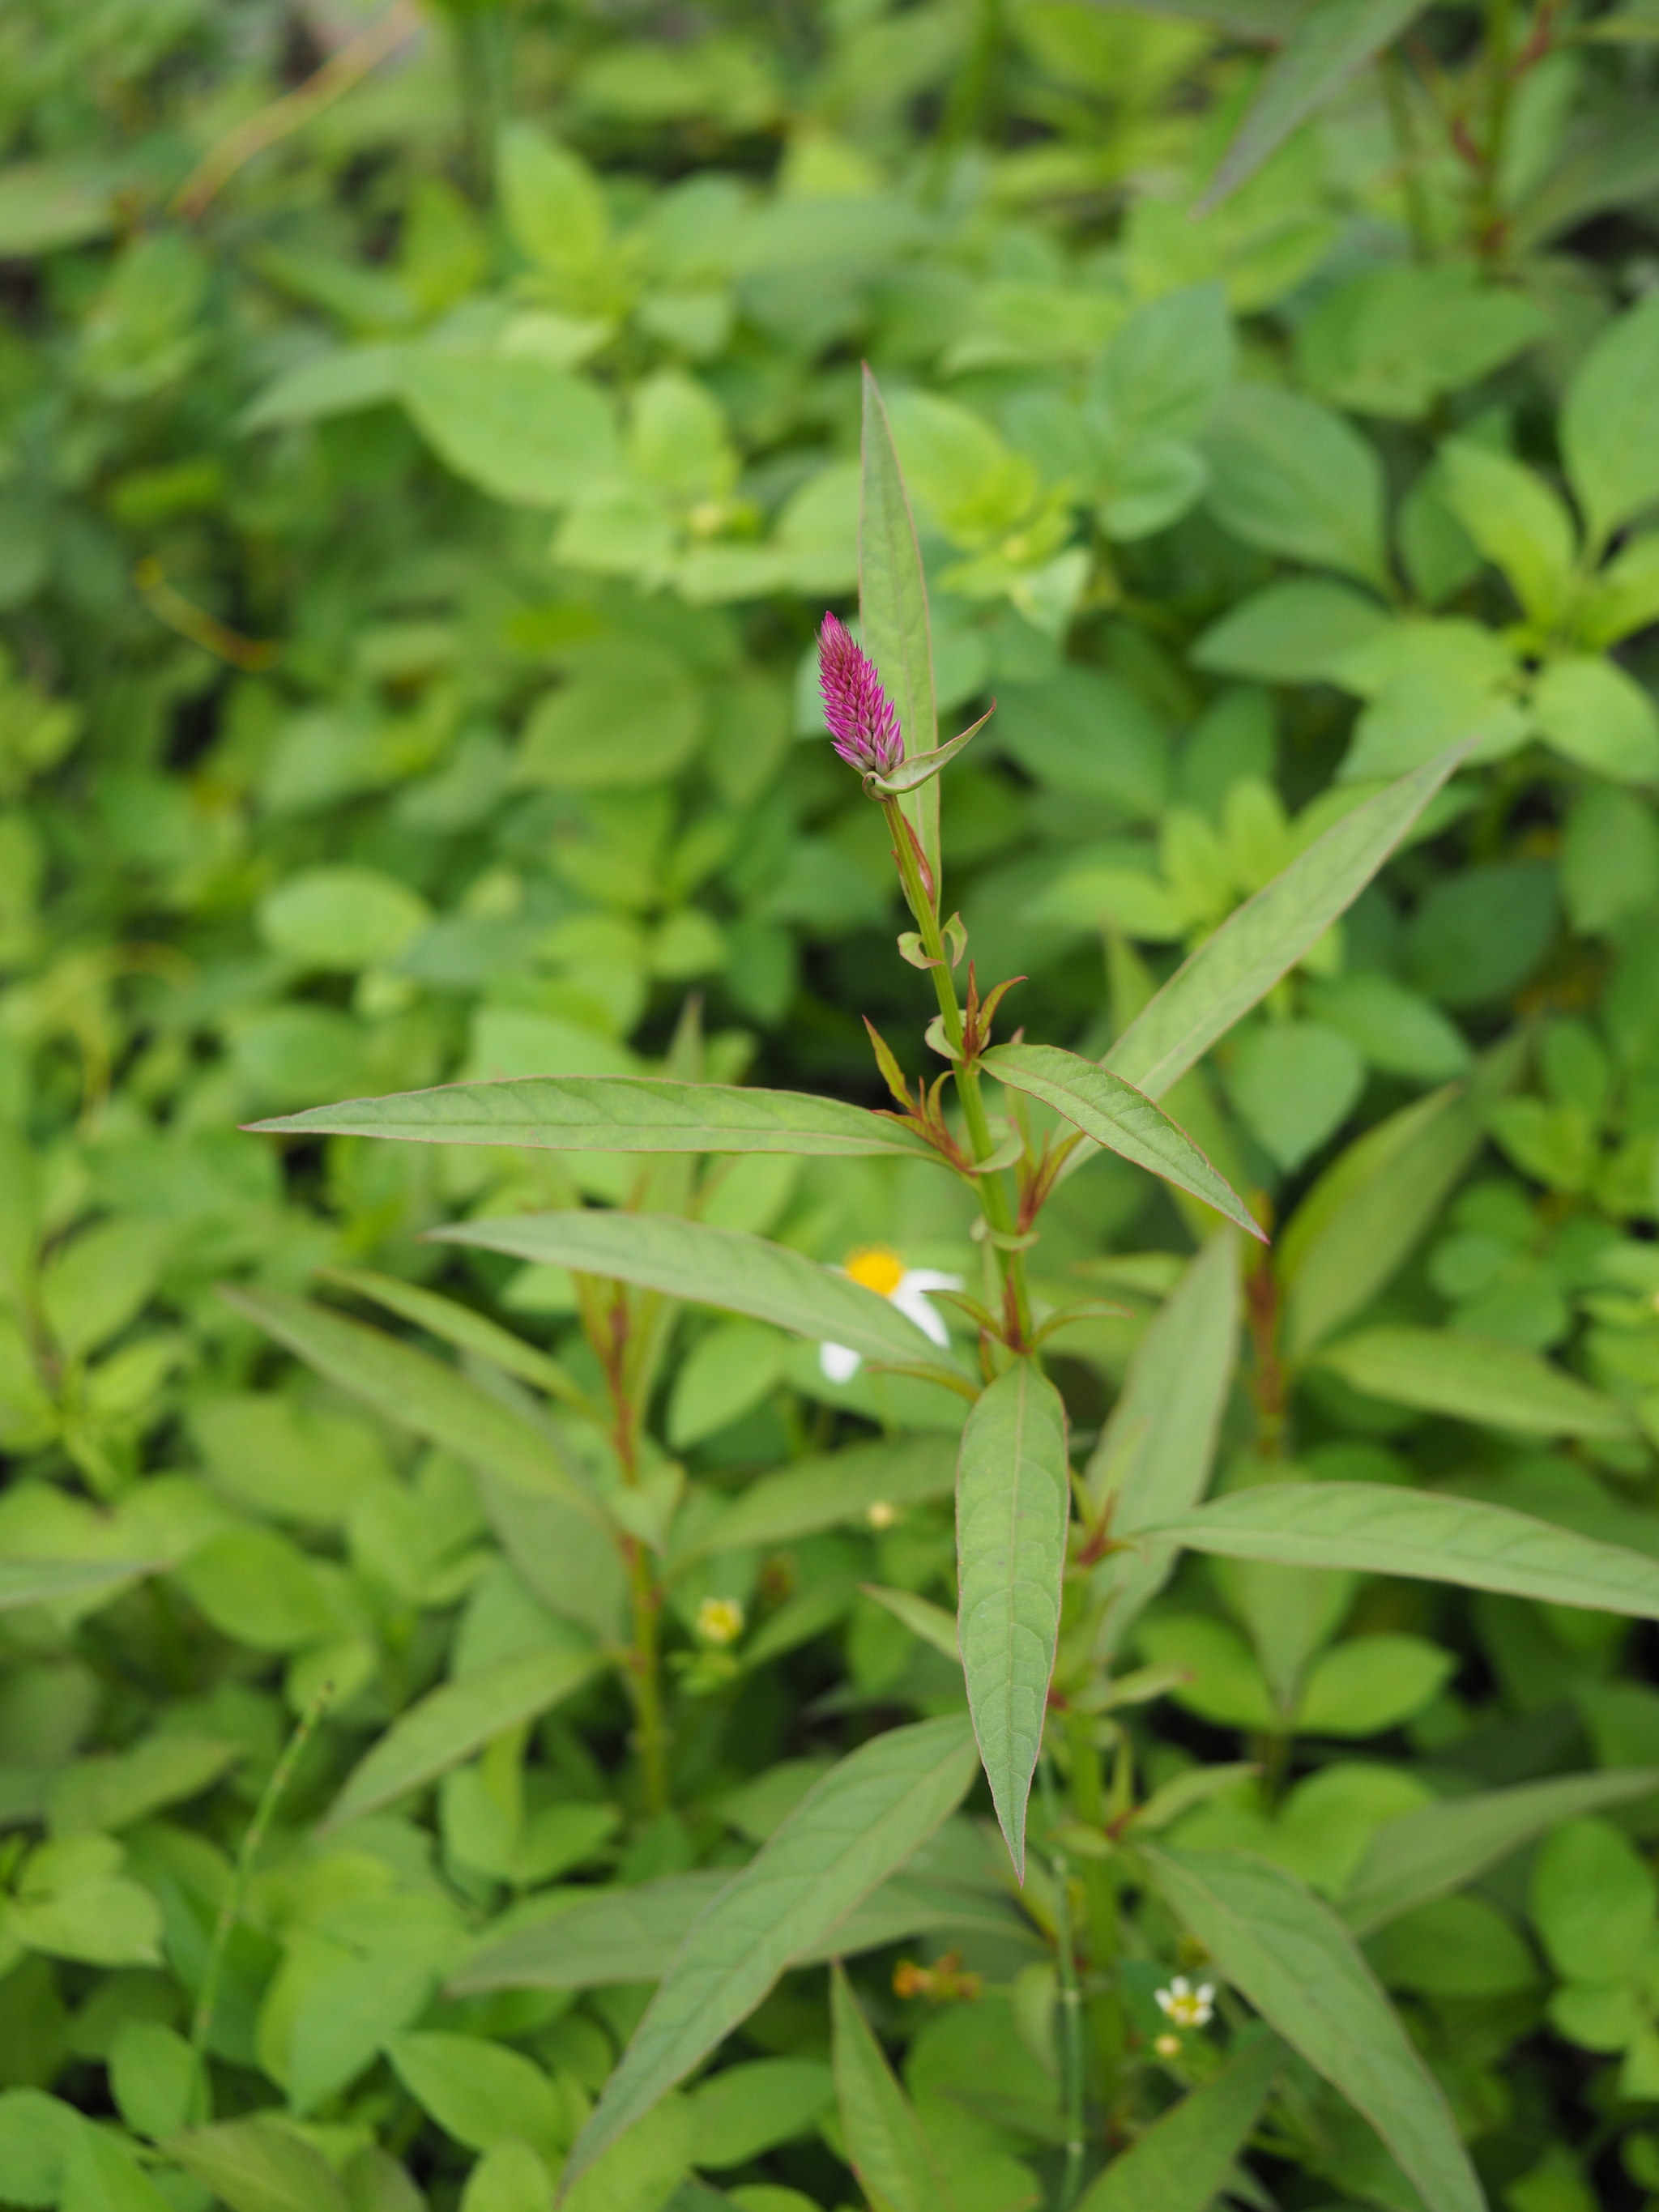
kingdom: Plantae
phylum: Tracheophyta
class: Magnoliopsida
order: Caryophyllales
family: Amaranthaceae
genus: Celosia
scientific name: Celosia argentea
